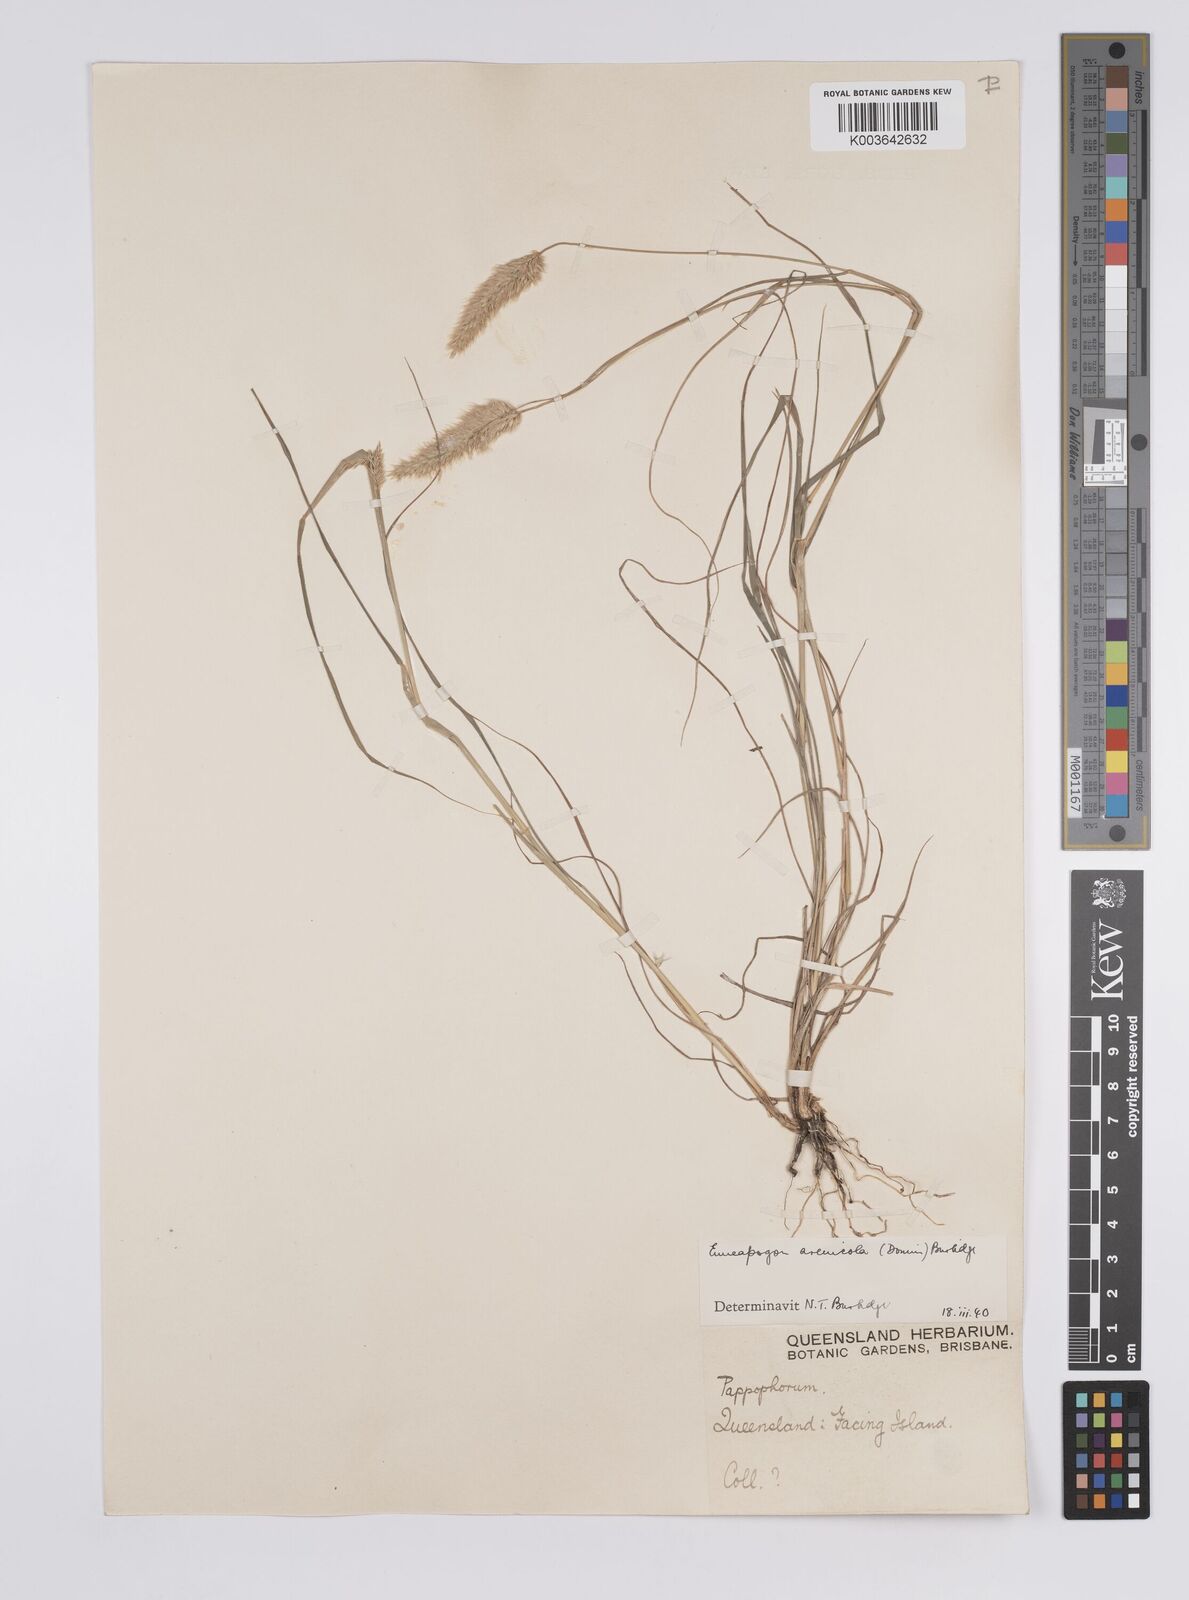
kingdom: Plantae
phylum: Tracheophyta
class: Liliopsida
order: Poales
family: Poaceae
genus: Enneapogon
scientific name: Enneapogon nigricans
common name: Pappus grass
